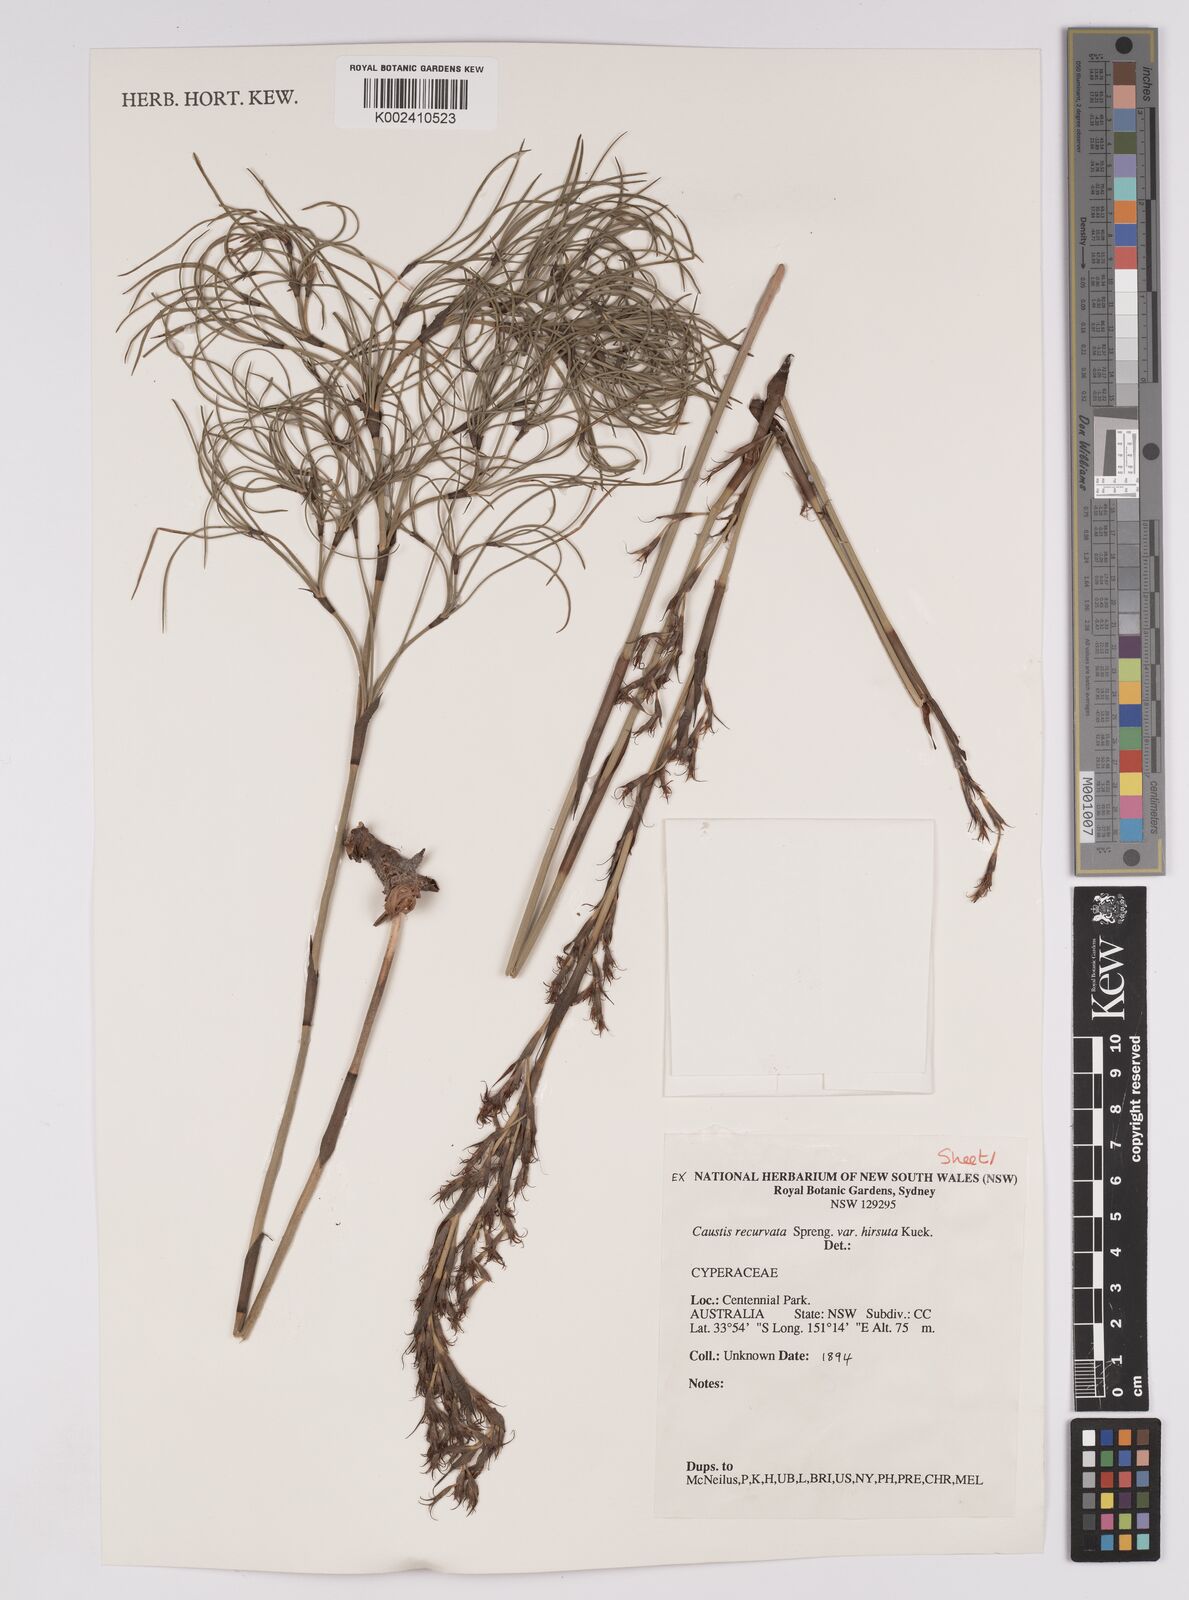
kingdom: Plantae
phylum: Tracheophyta
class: Liliopsida
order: Poales
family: Cyperaceae
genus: Caustis
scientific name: Caustis recurvata
